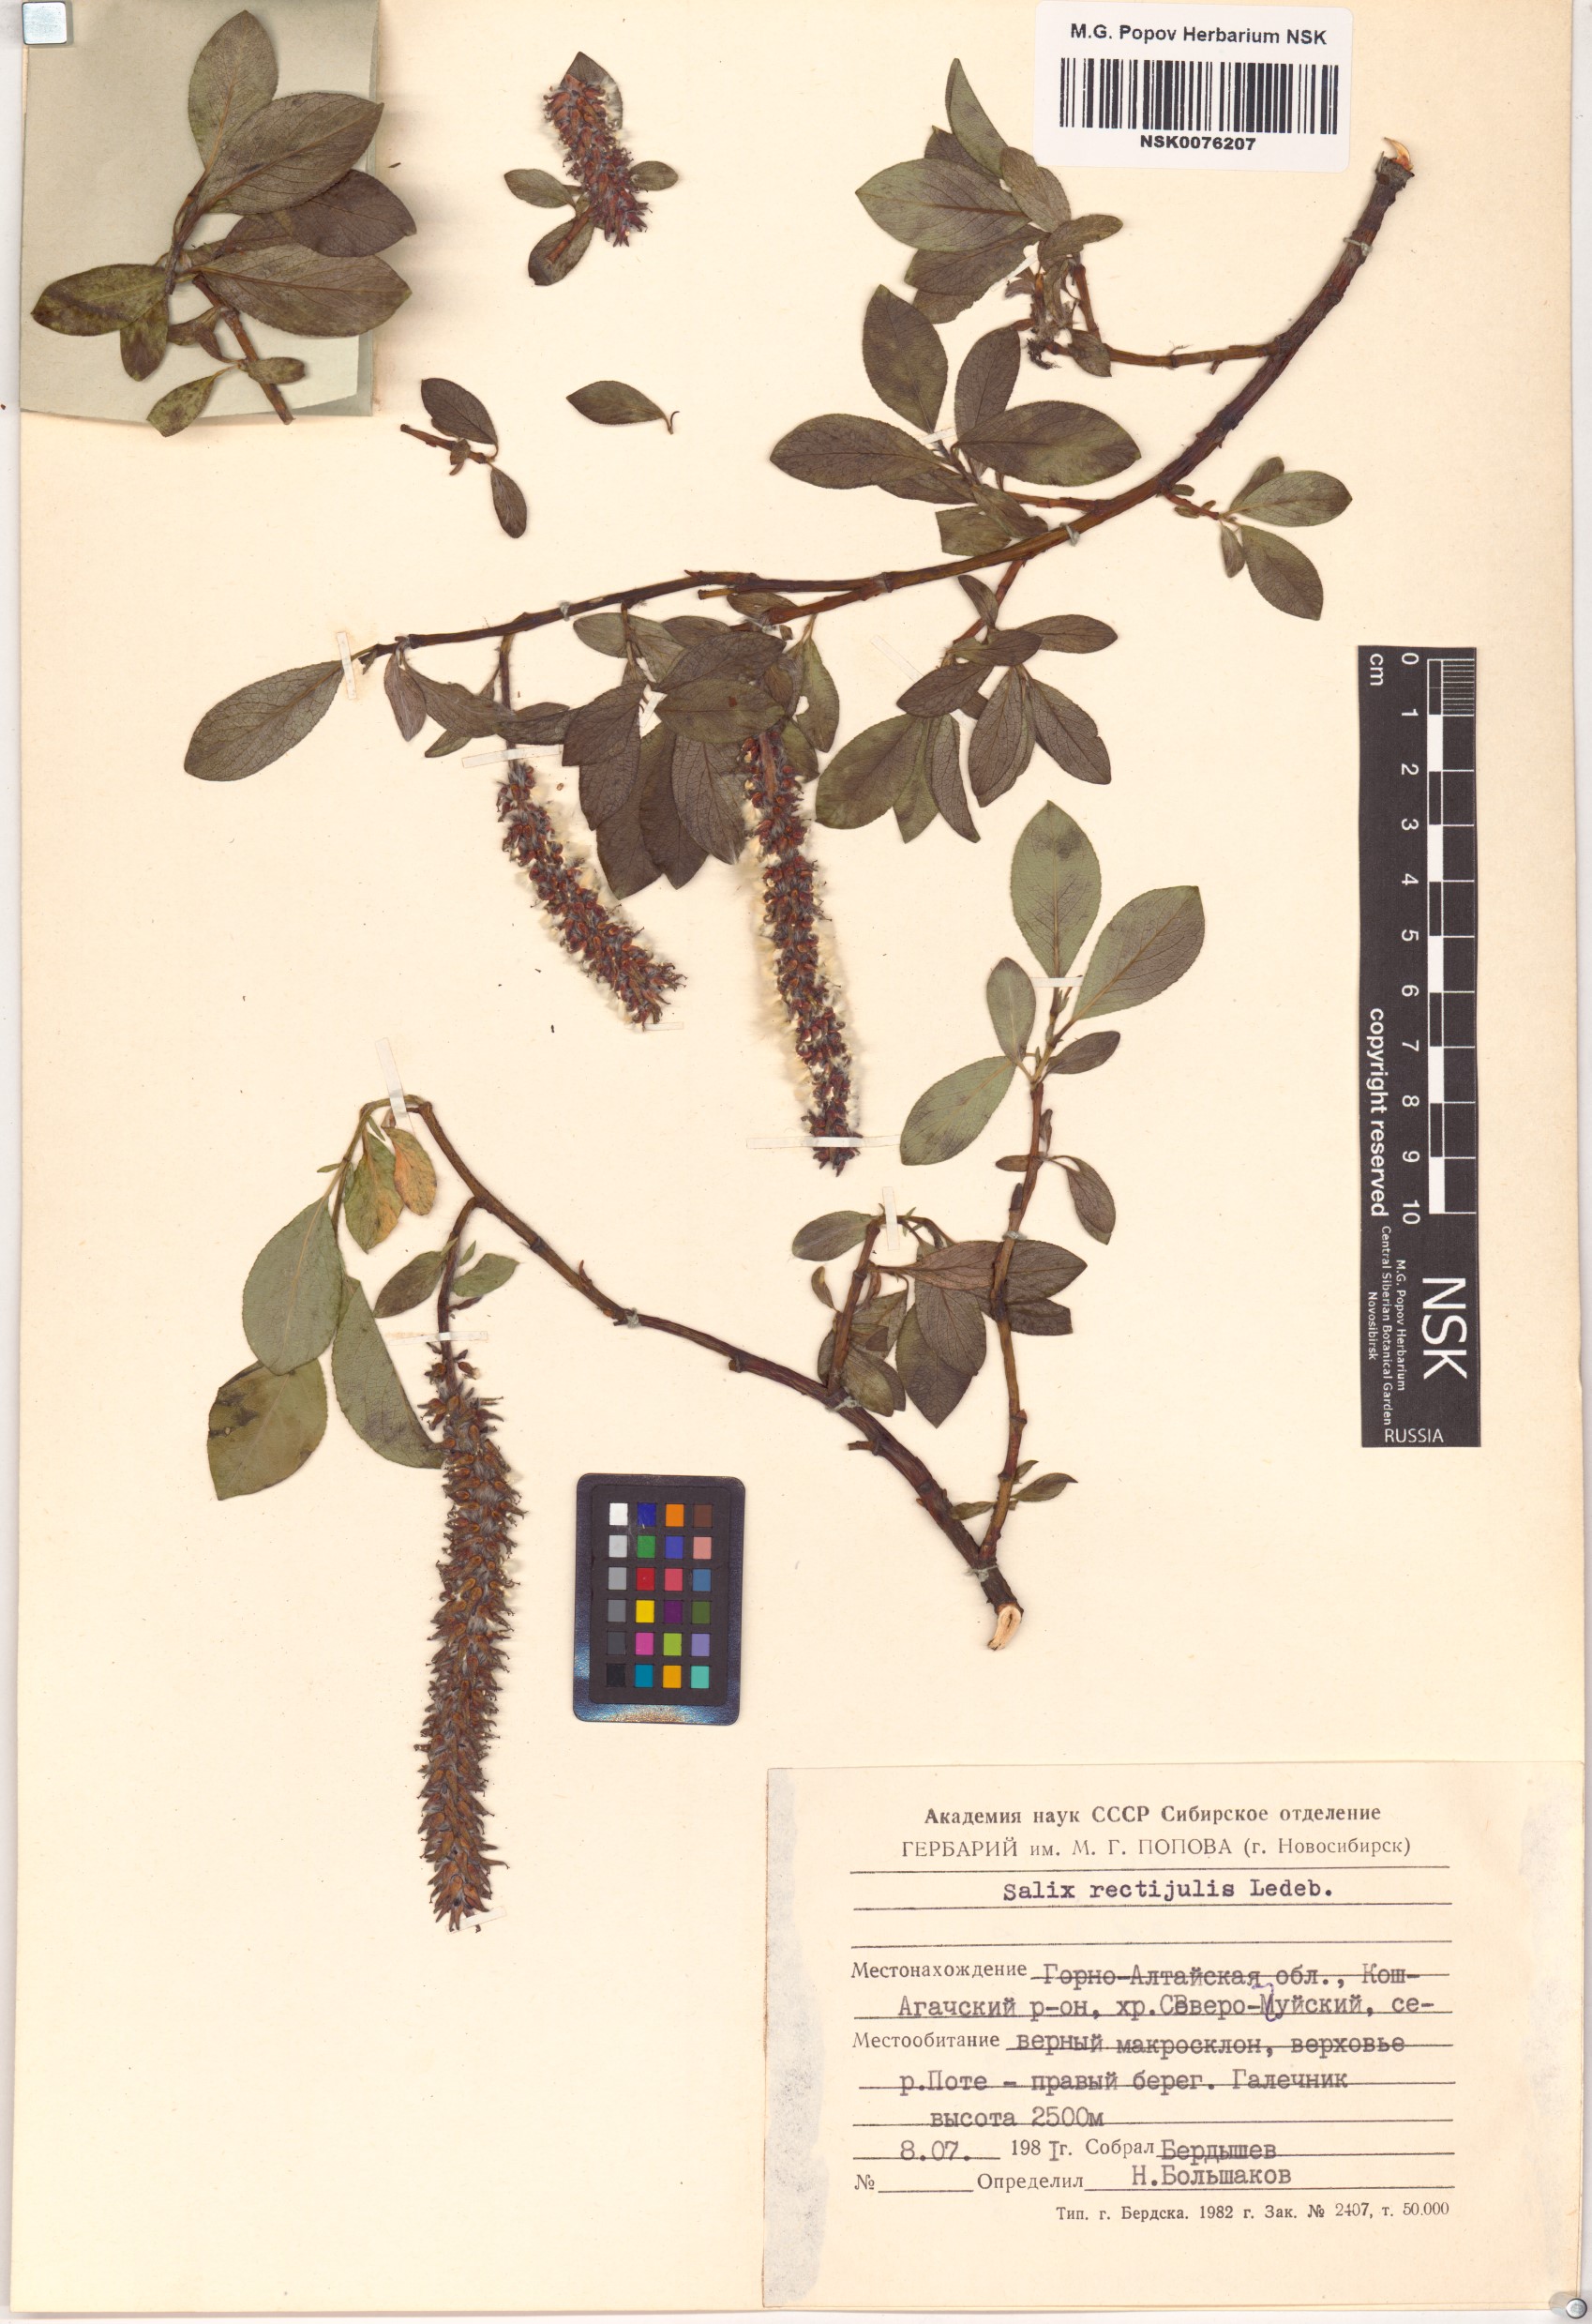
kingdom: Plantae
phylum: Tracheophyta
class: Magnoliopsida
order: Malpighiales
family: Salicaceae
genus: Salix
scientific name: Salix rectijulis
